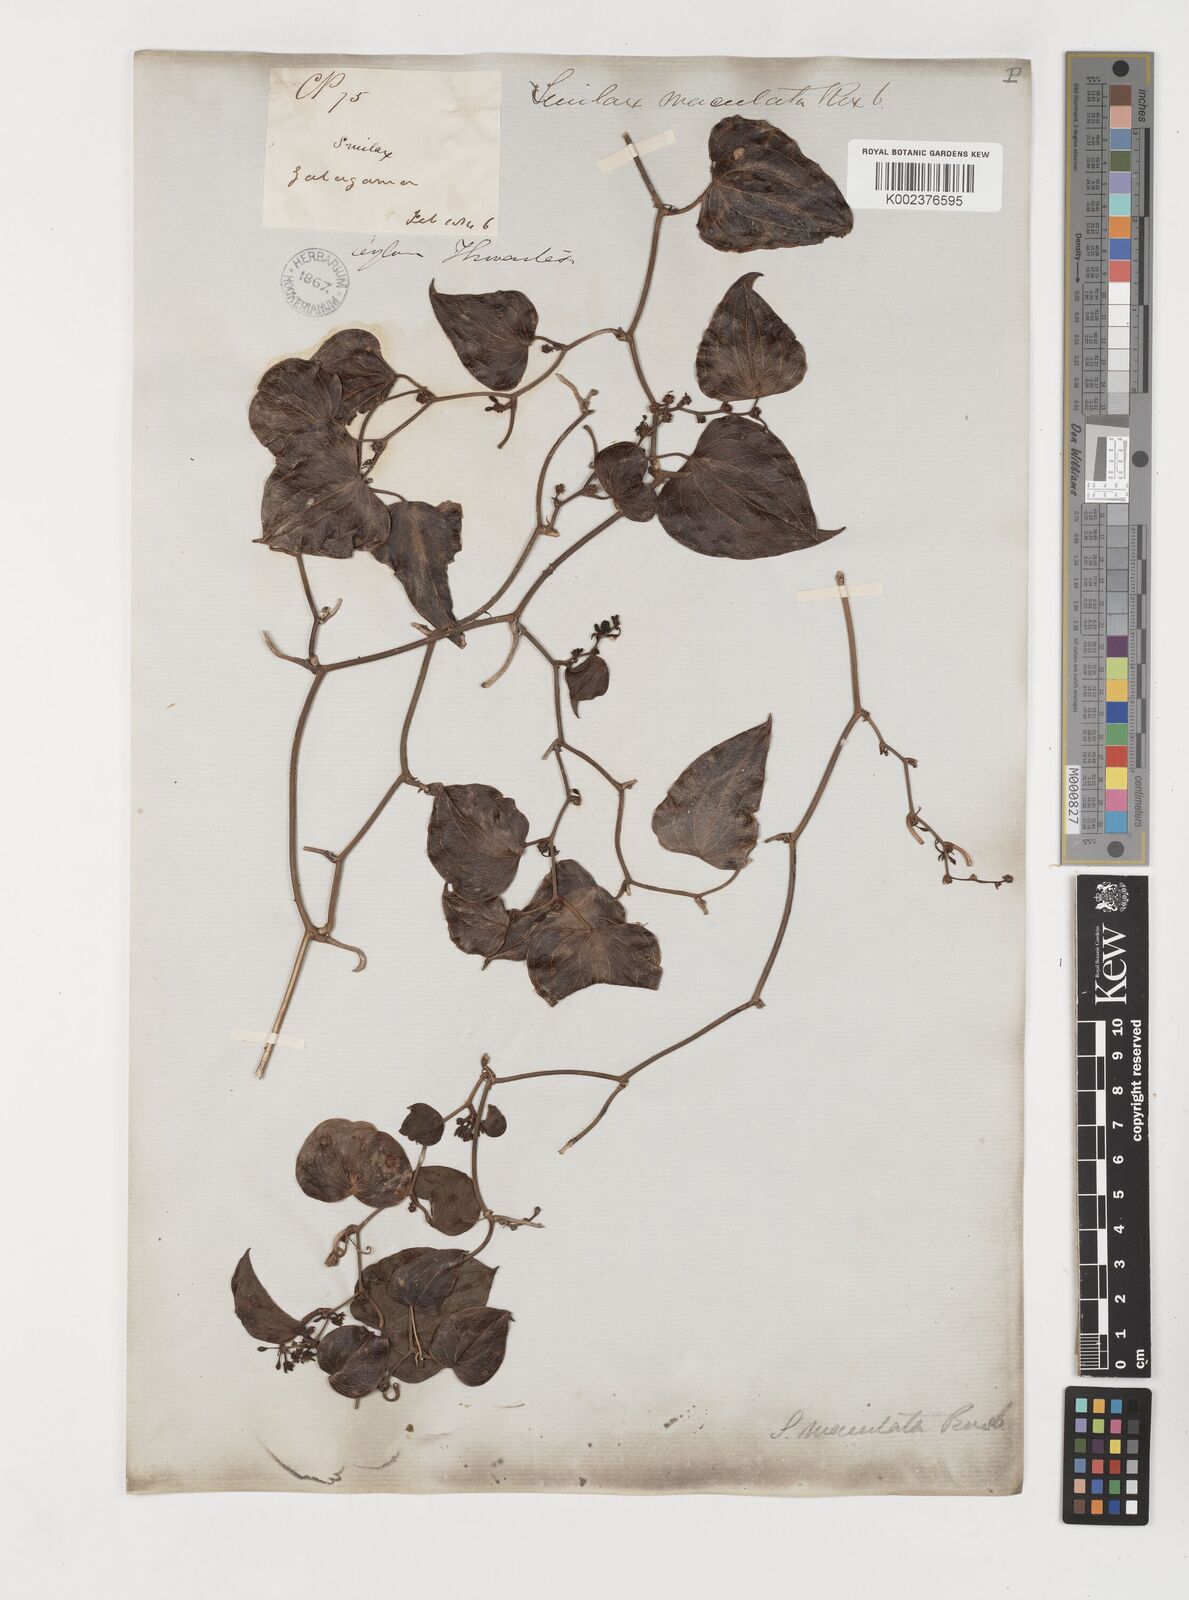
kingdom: Plantae
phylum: Tracheophyta
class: Liliopsida
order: Liliales
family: Smilacaceae
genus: Smilax
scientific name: Smilax aspera
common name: Common smilax
